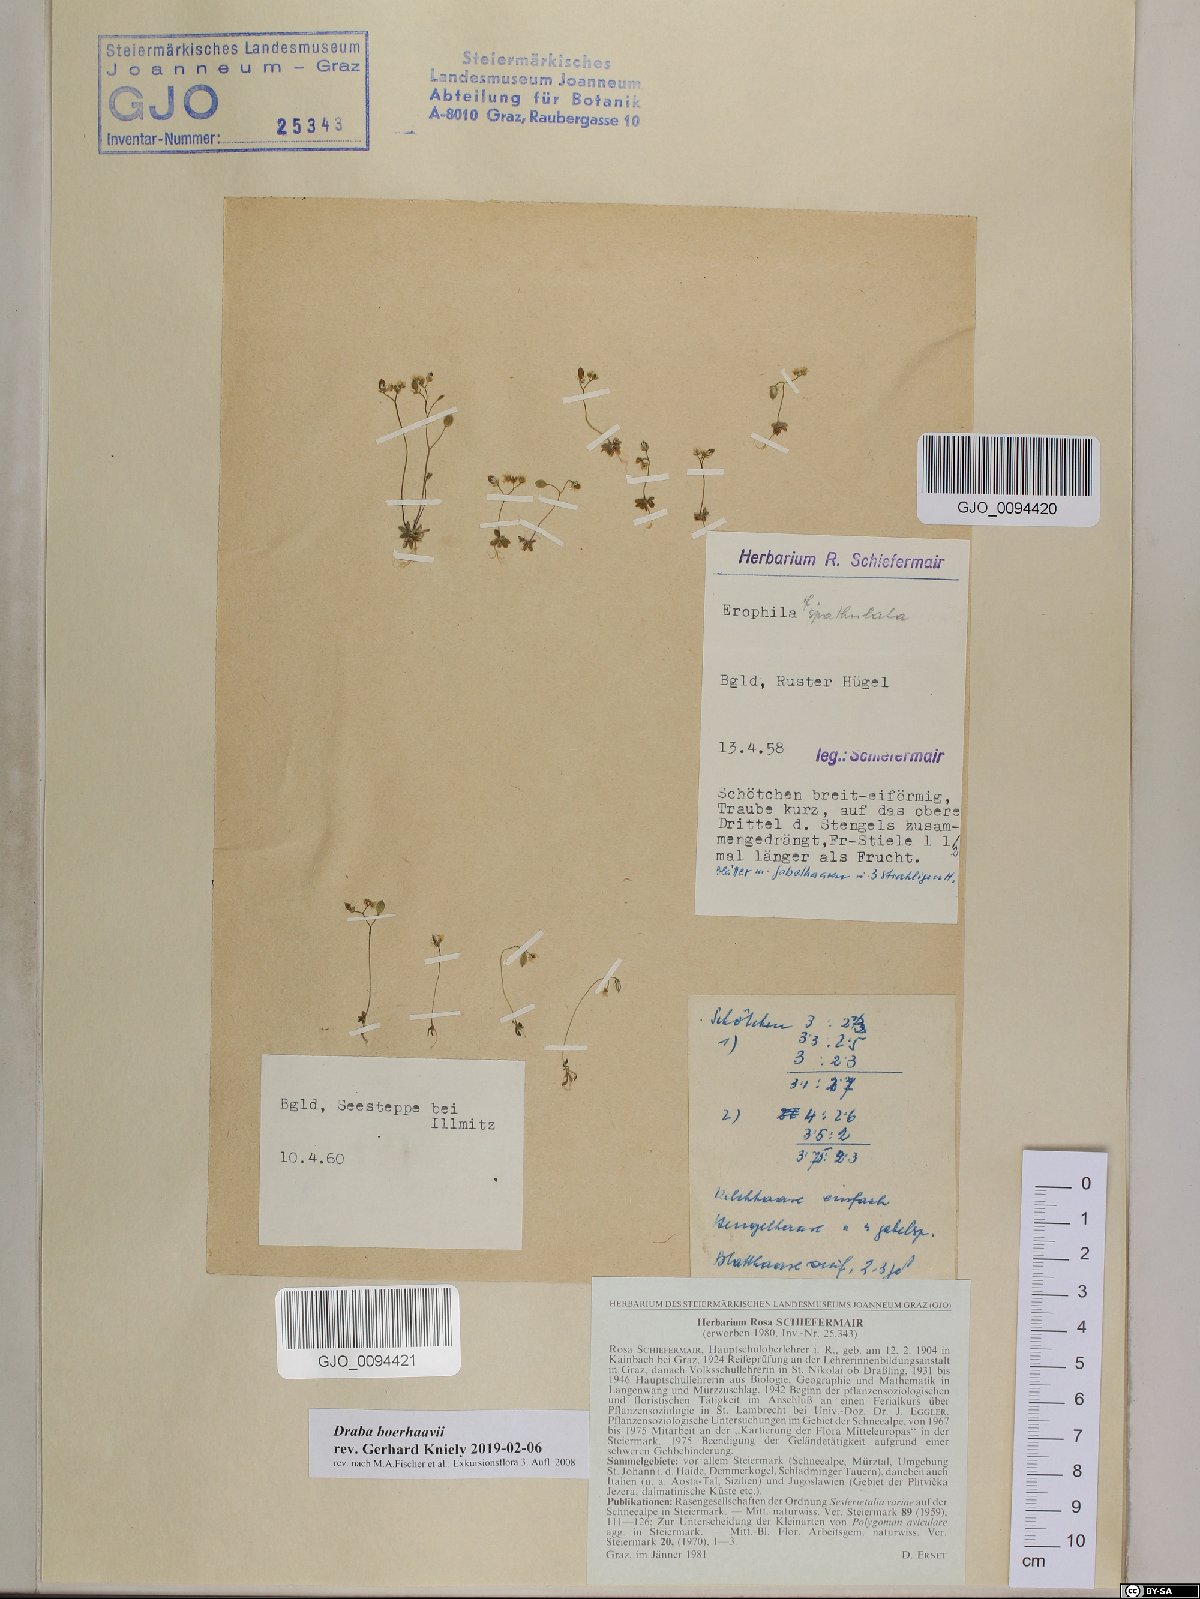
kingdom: Plantae
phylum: Tracheophyta
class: Magnoliopsida
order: Brassicales
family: Brassicaceae
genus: Draba
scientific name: Draba verna
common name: Spring draba
